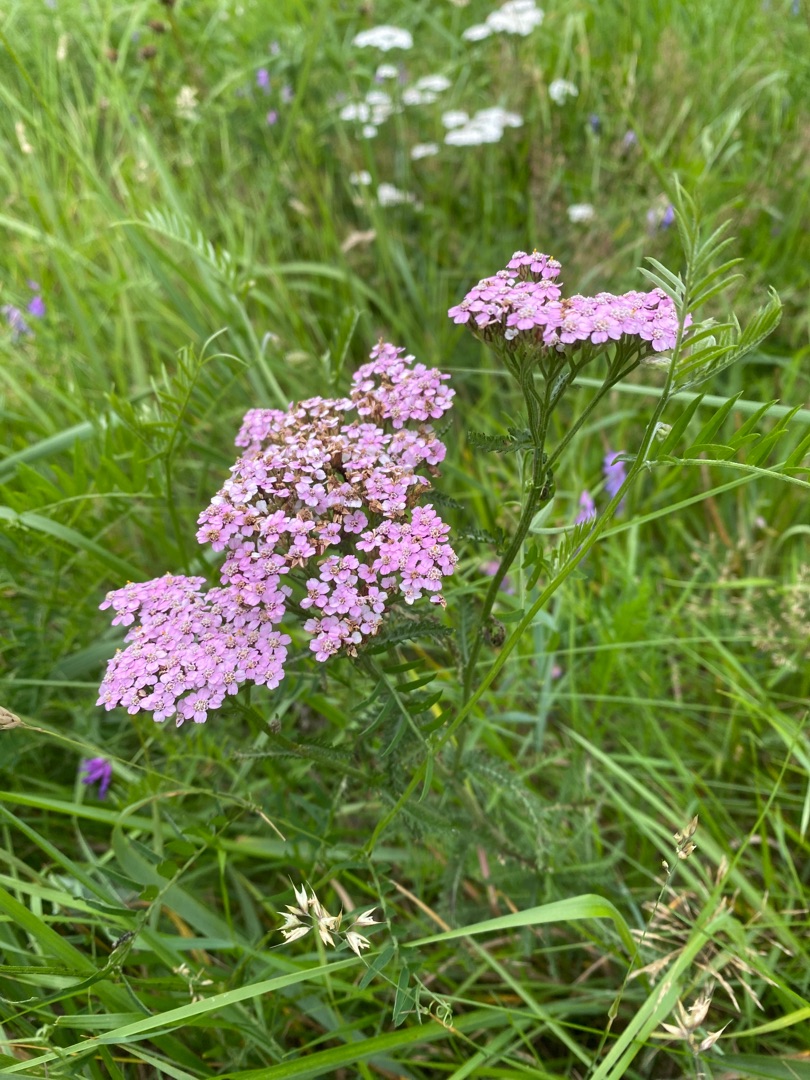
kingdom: Plantae
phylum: Tracheophyta
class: Magnoliopsida
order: Asterales
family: Asteraceae
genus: Achillea
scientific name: Achillea millefolium
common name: Almindelig røllike
